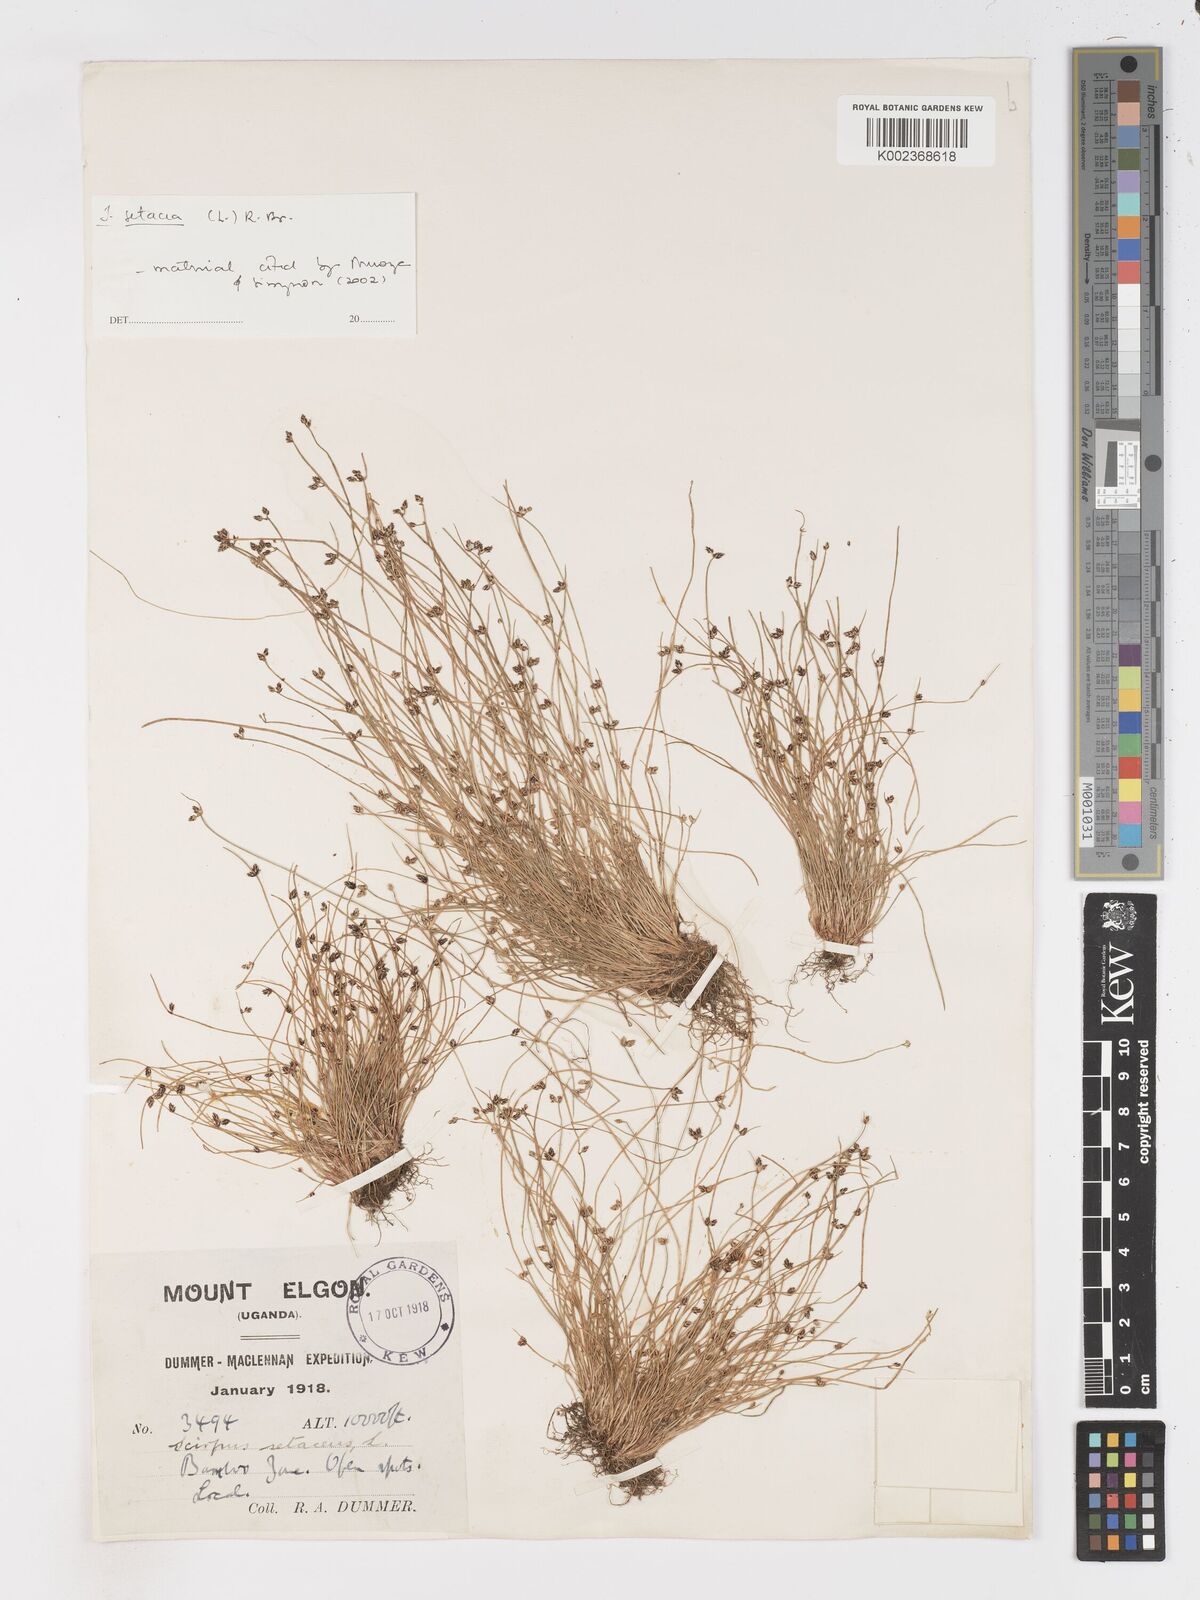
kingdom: Plantae
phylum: Tracheophyta
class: Liliopsida
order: Poales
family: Cyperaceae
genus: Isolepis
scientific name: Isolepis setacea
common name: Bristle club-rush
